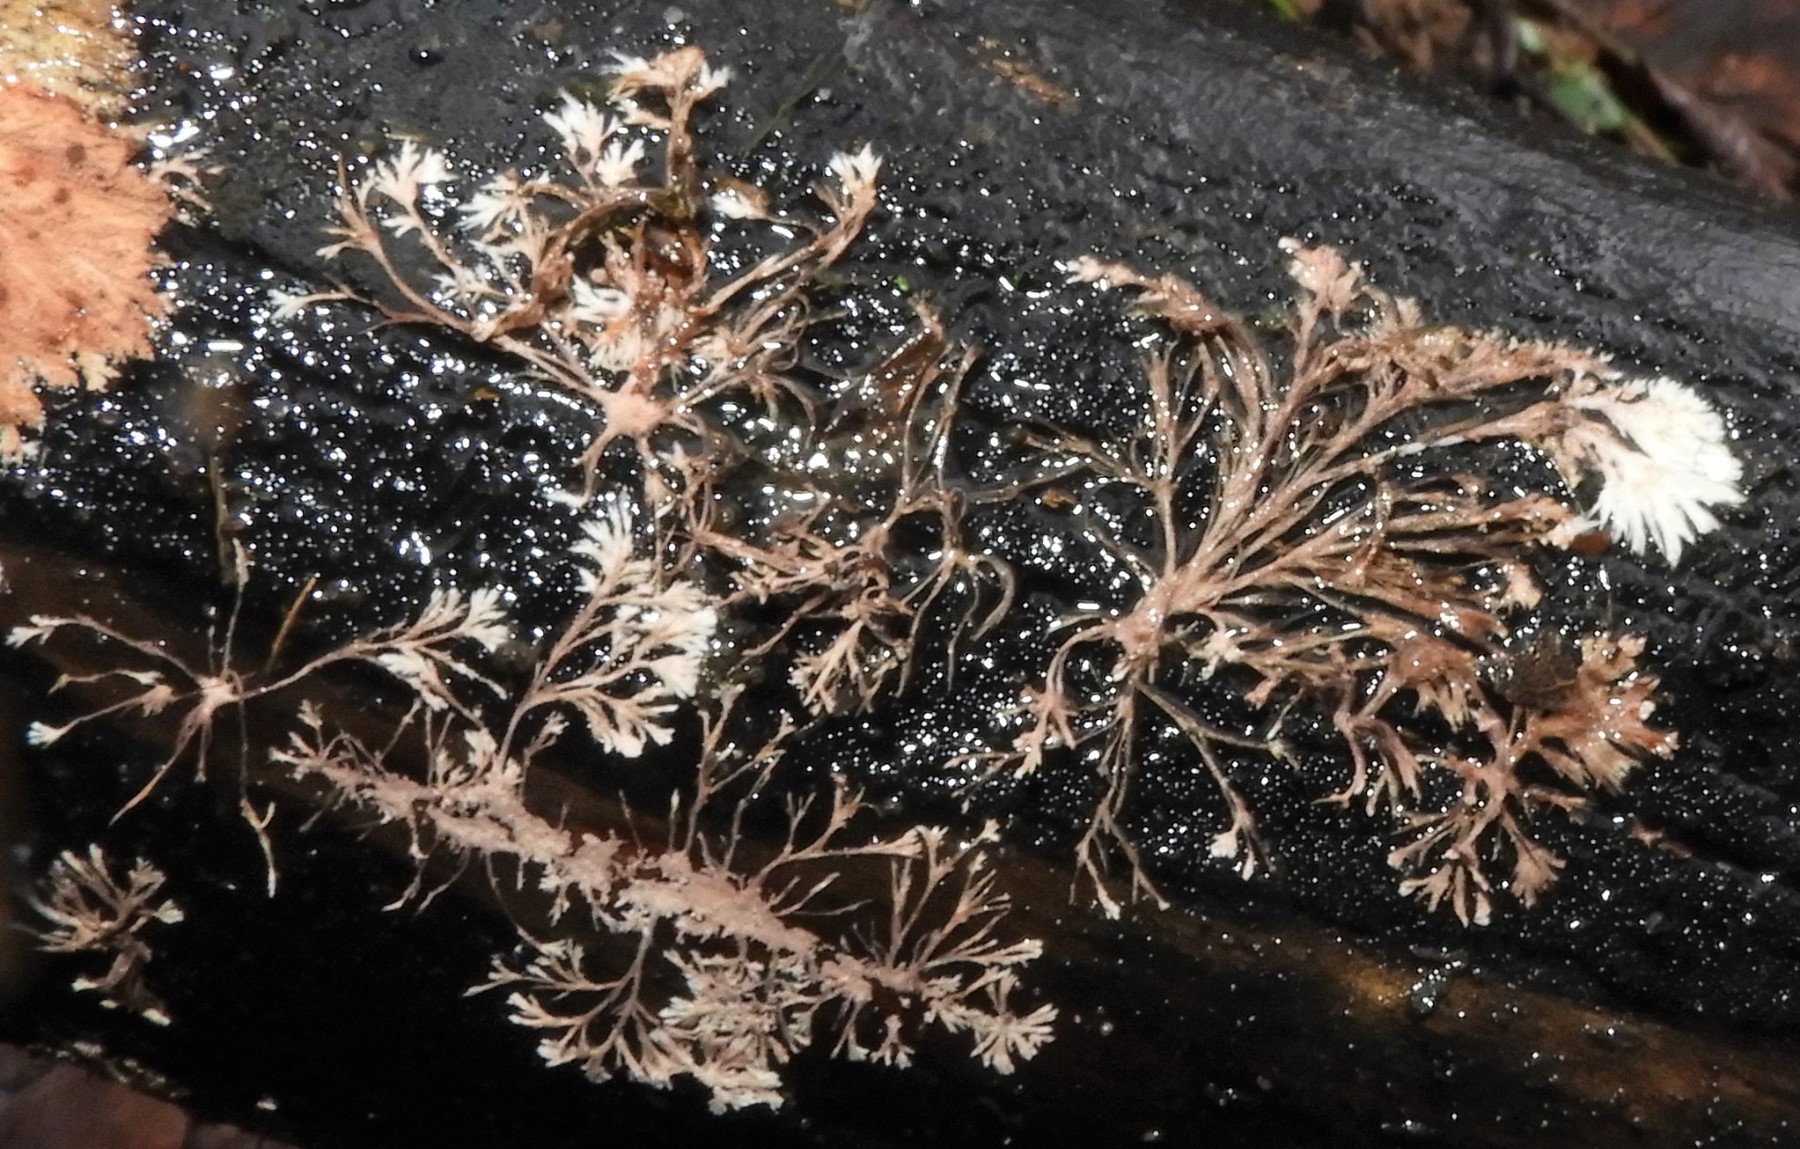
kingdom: Fungi
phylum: Basidiomycota
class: Agaricomycetes
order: Polyporales
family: Steccherinaceae
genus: Steccherinum
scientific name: Steccherinum fimbriatum
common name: trådet skønpig
